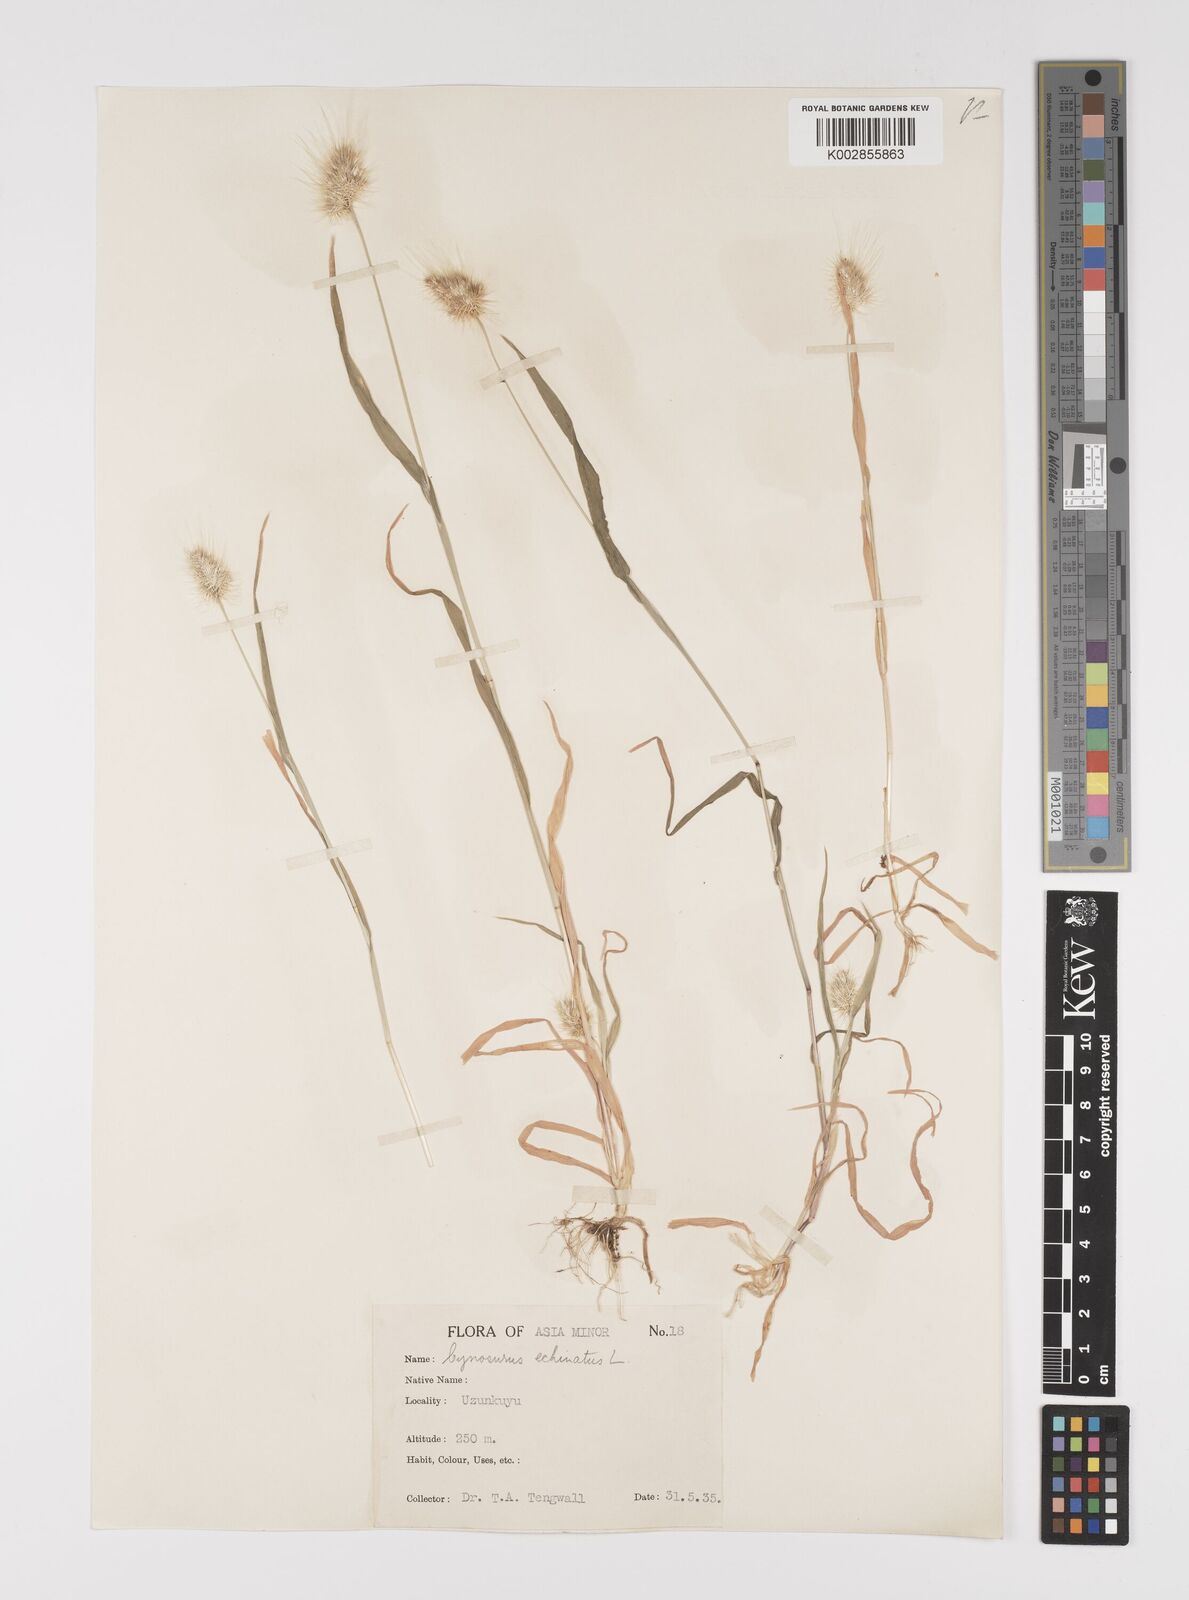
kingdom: Plantae
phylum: Tracheophyta
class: Liliopsida
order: Poales
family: Poaceae
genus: Cynosurus
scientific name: Cynosurus echinatus
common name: Rough dog's-tail
